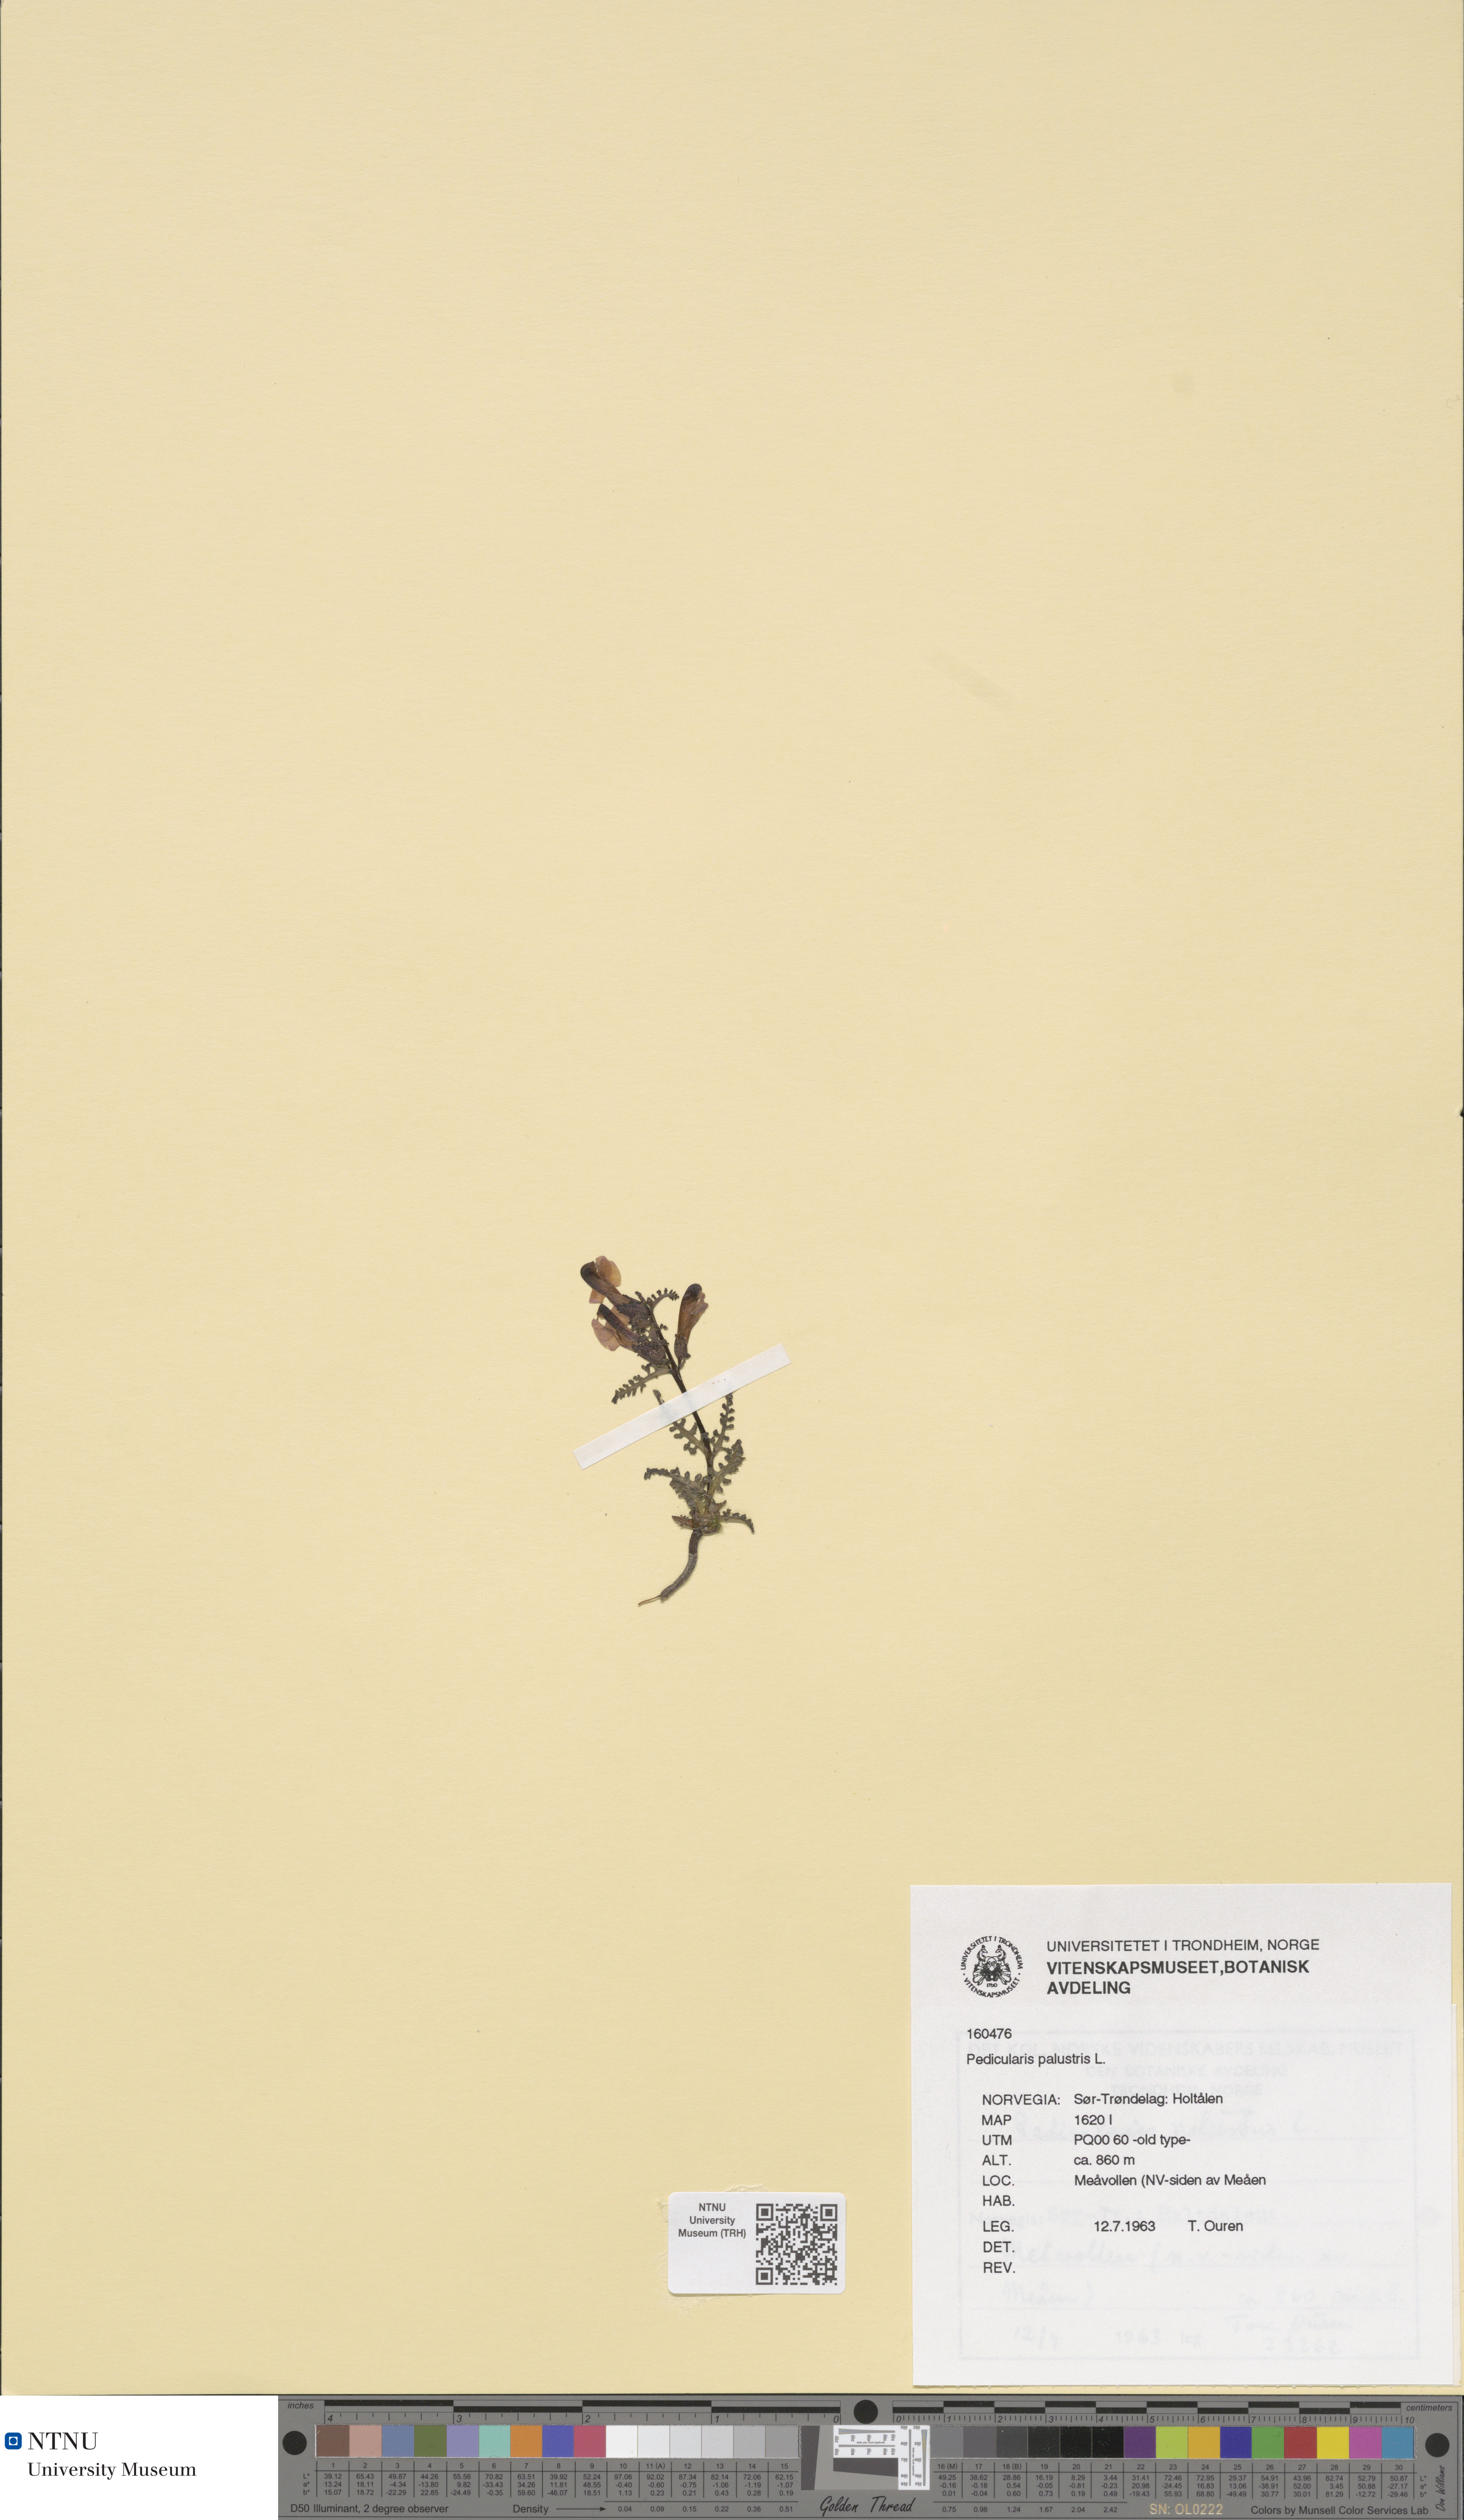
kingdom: Plantae
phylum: Tracheophyta
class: Magnoliopsida
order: Lamiales
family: Orobanchaceae
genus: Pedicularis
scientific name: Pedicularis palustris
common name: Marsh lousewort
